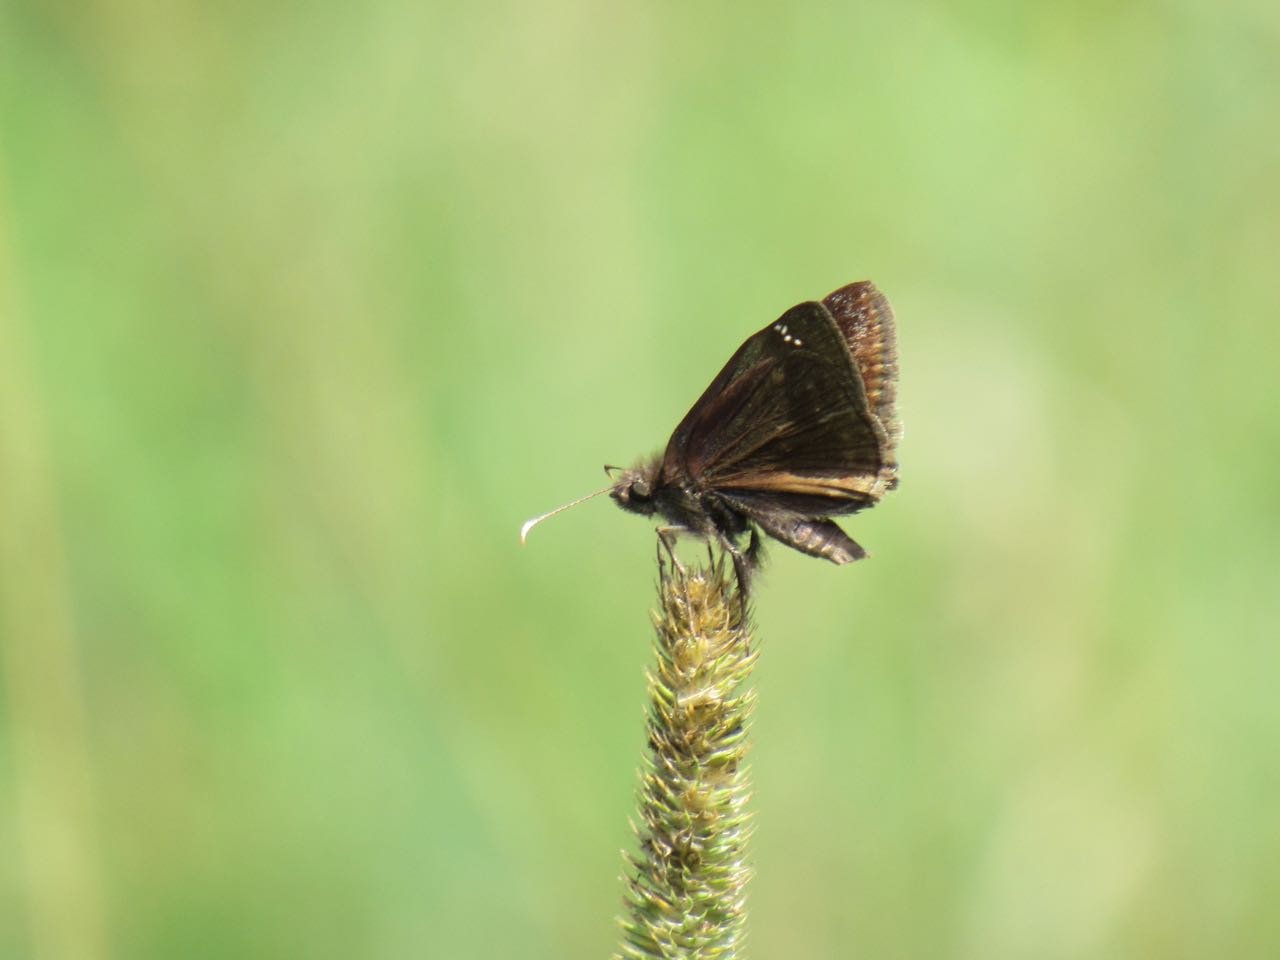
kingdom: Animalia
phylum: Arthropoda
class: Insecta
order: Lepidoptera
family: Hesperiidae
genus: Gesta
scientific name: Gesta
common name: Wild Indigo Duskywing
